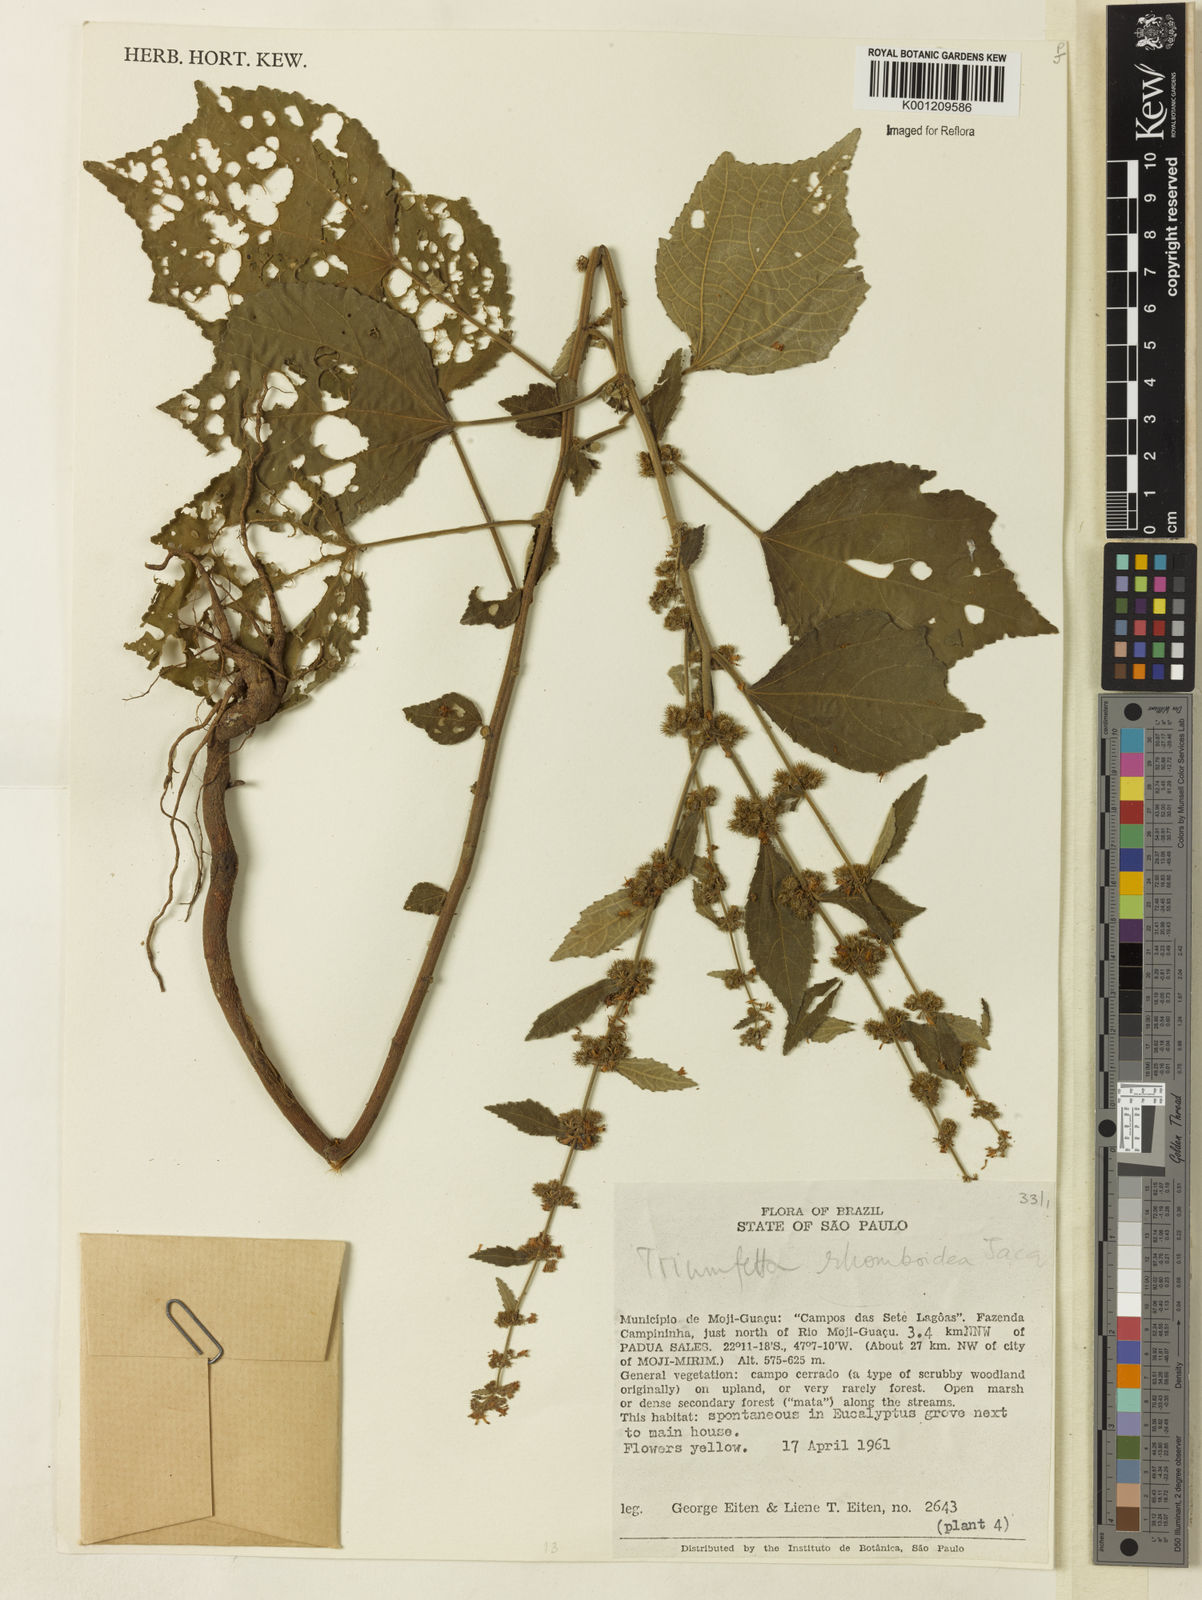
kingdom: Plantae
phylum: Tracheophyta
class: Magnoliopsida
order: Malvales
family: Malvaceae
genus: Triumfetta
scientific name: Triumfetta rhomboidea
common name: Diamond burbark
